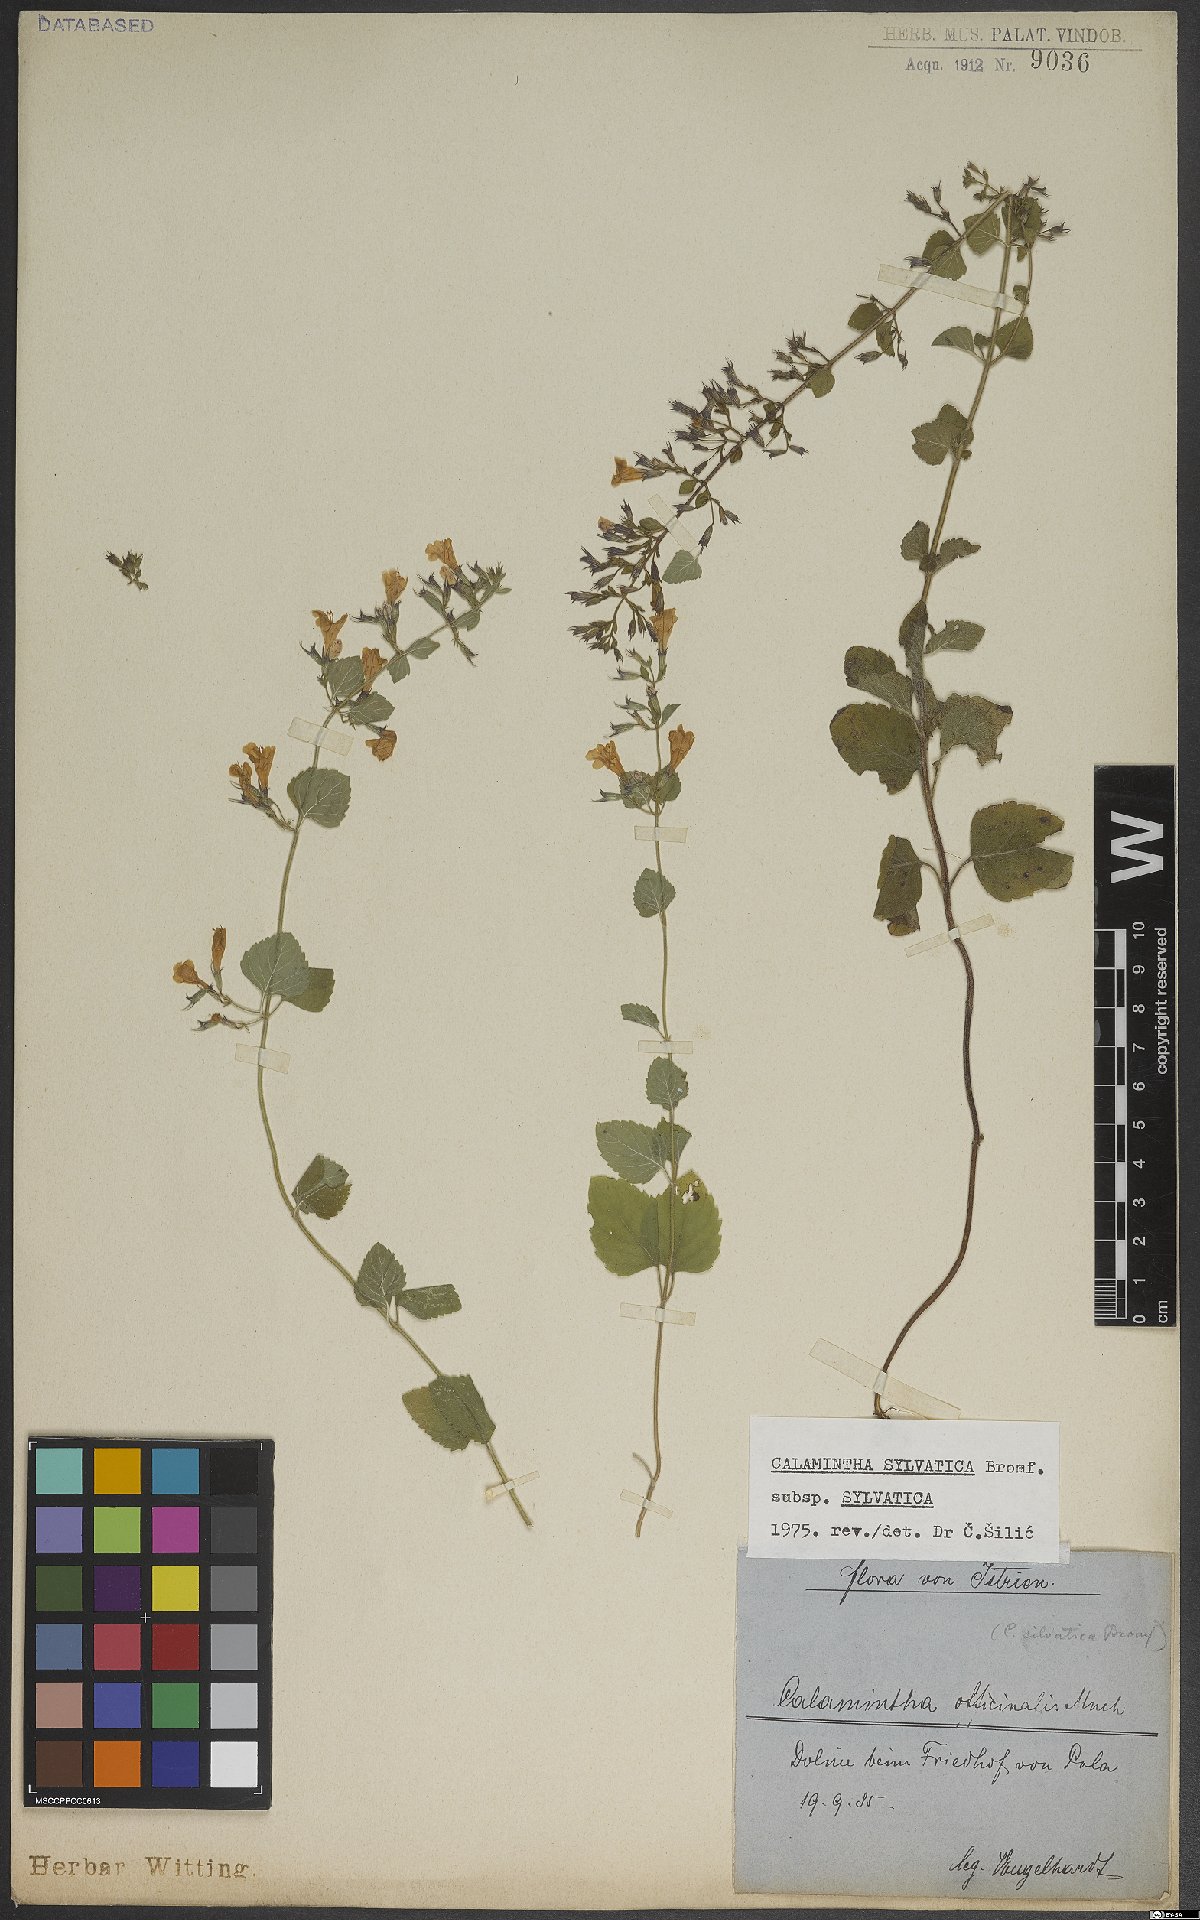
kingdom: Plantae
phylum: Tracheophyta
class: Magnoliopsida
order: Lamiales
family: Lamiaceae
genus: Clinopodium
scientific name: Clinopodium menthifolium
